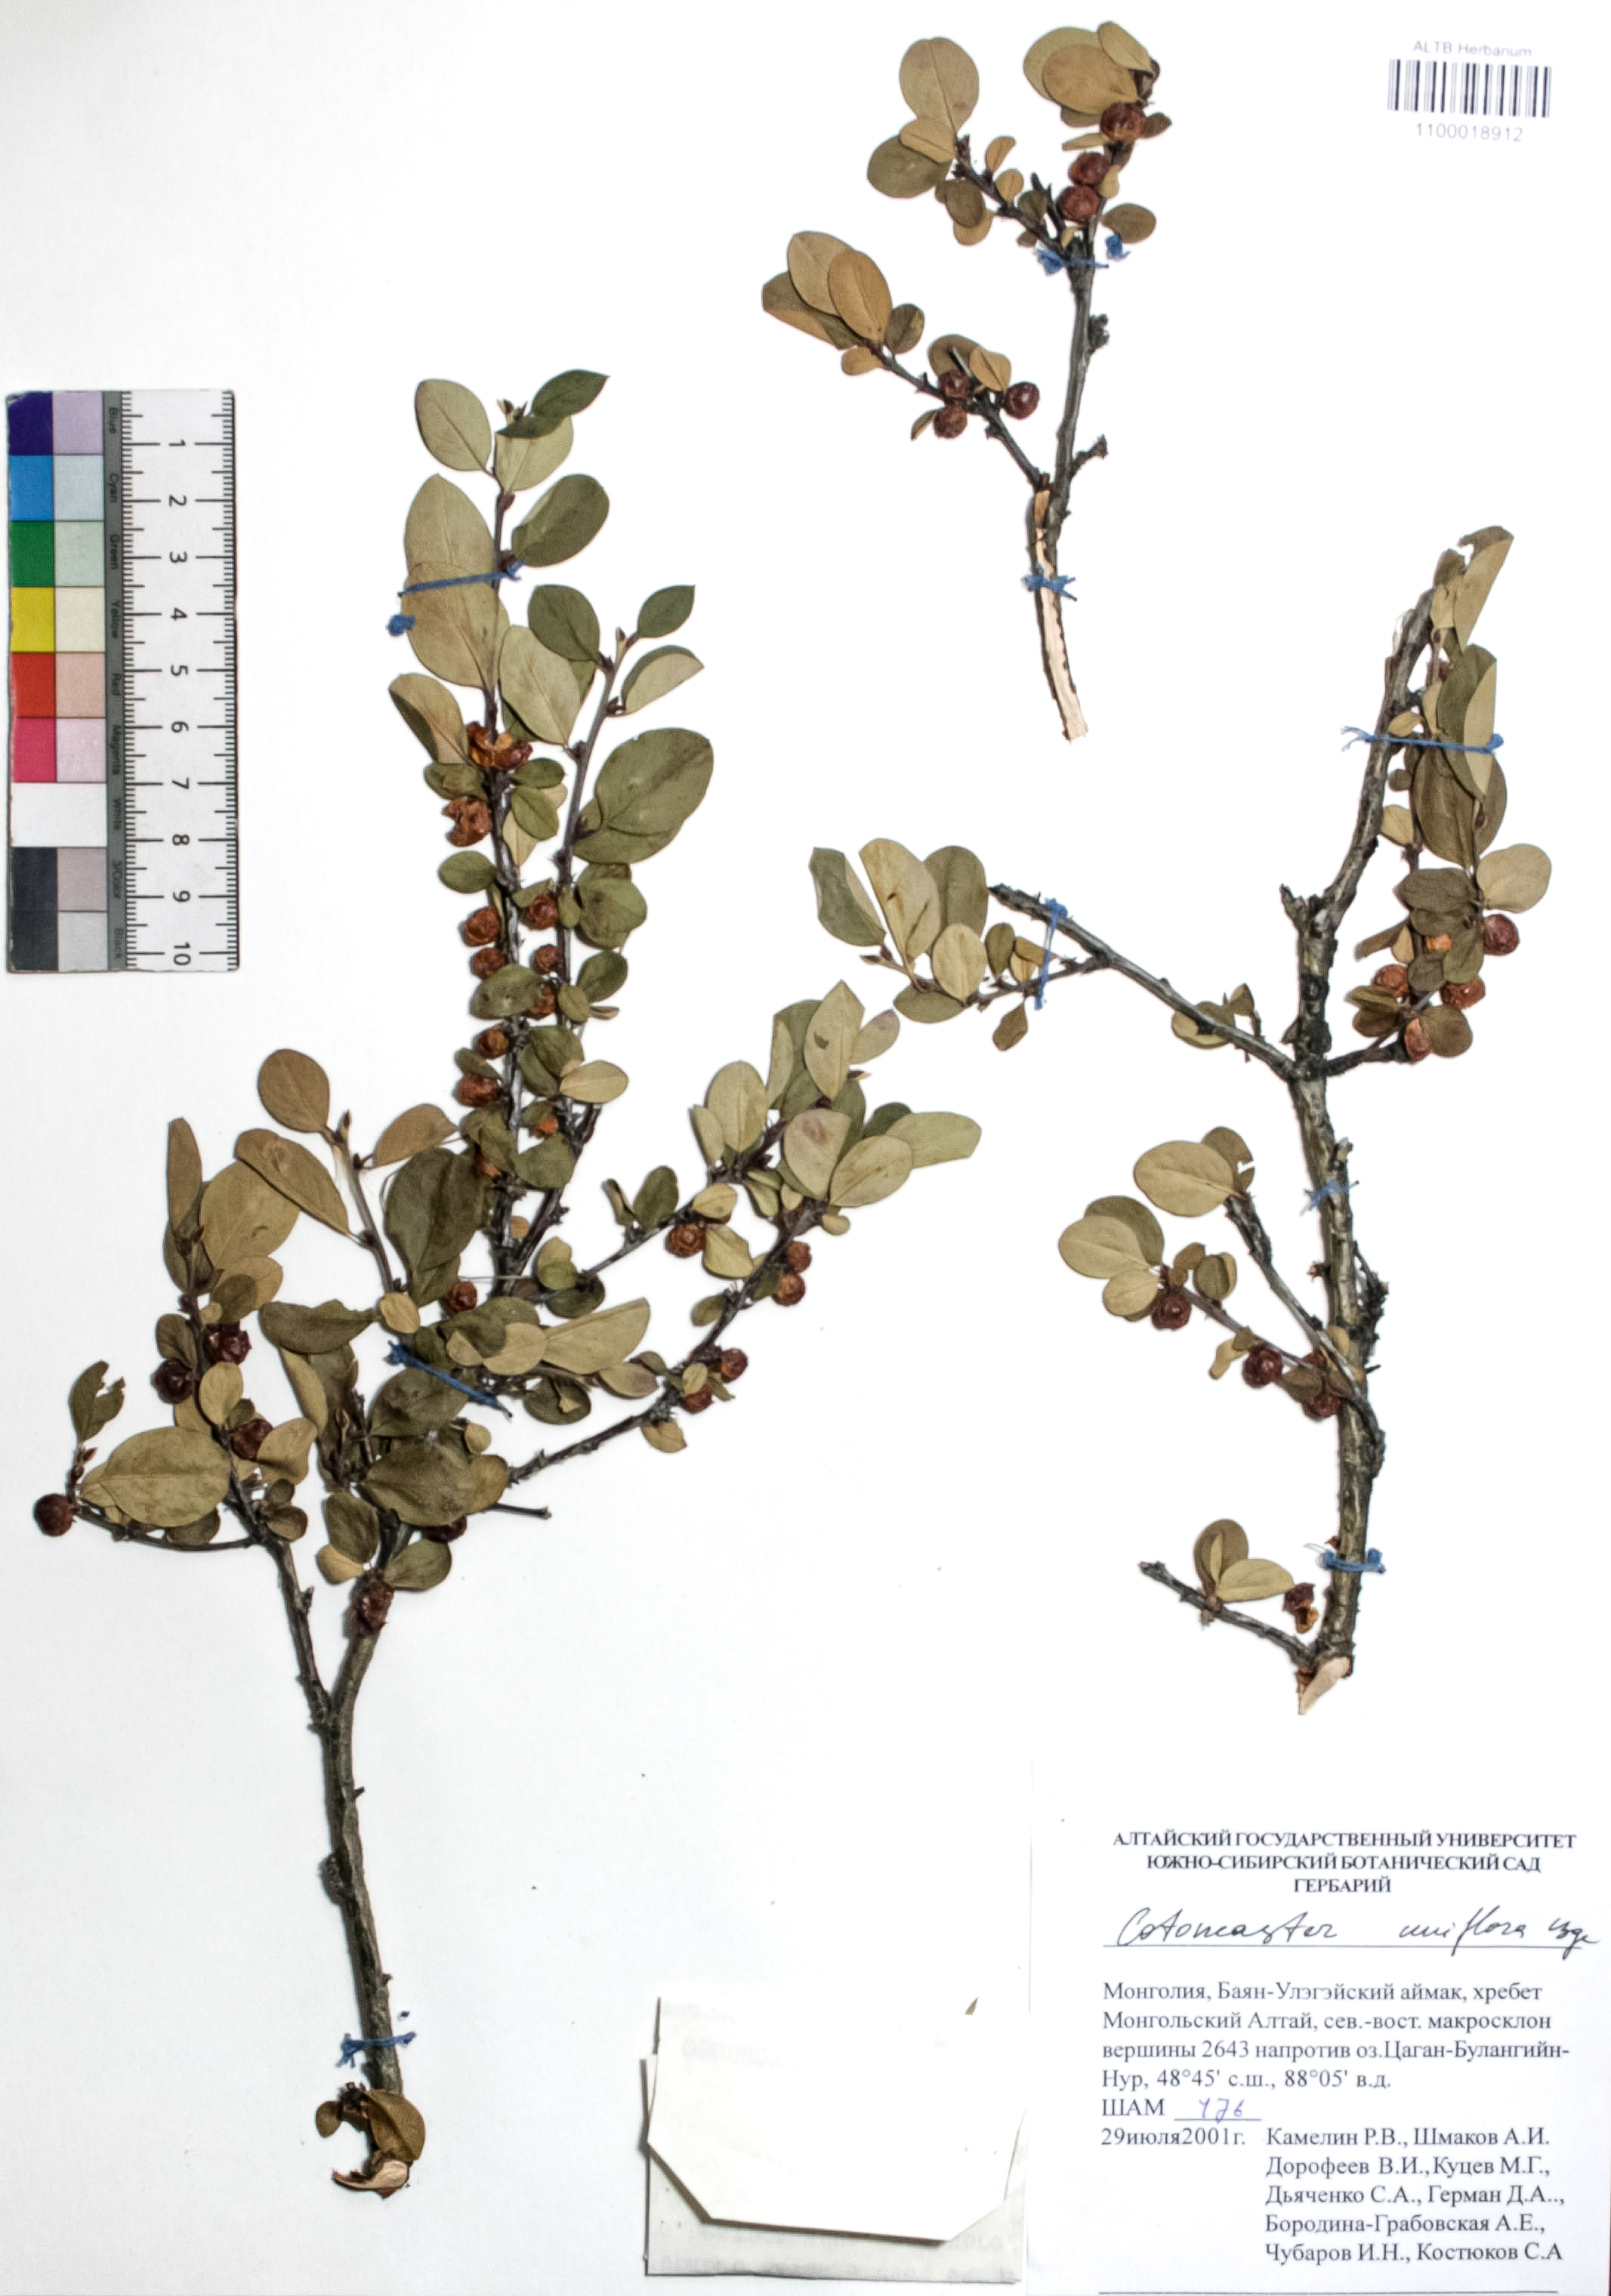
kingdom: Plantae
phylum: Tracheophyta
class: Magnoliopsida
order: Rosales
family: Rosaceae
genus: Cotoneaster
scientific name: Cotoneaster uniflorus
